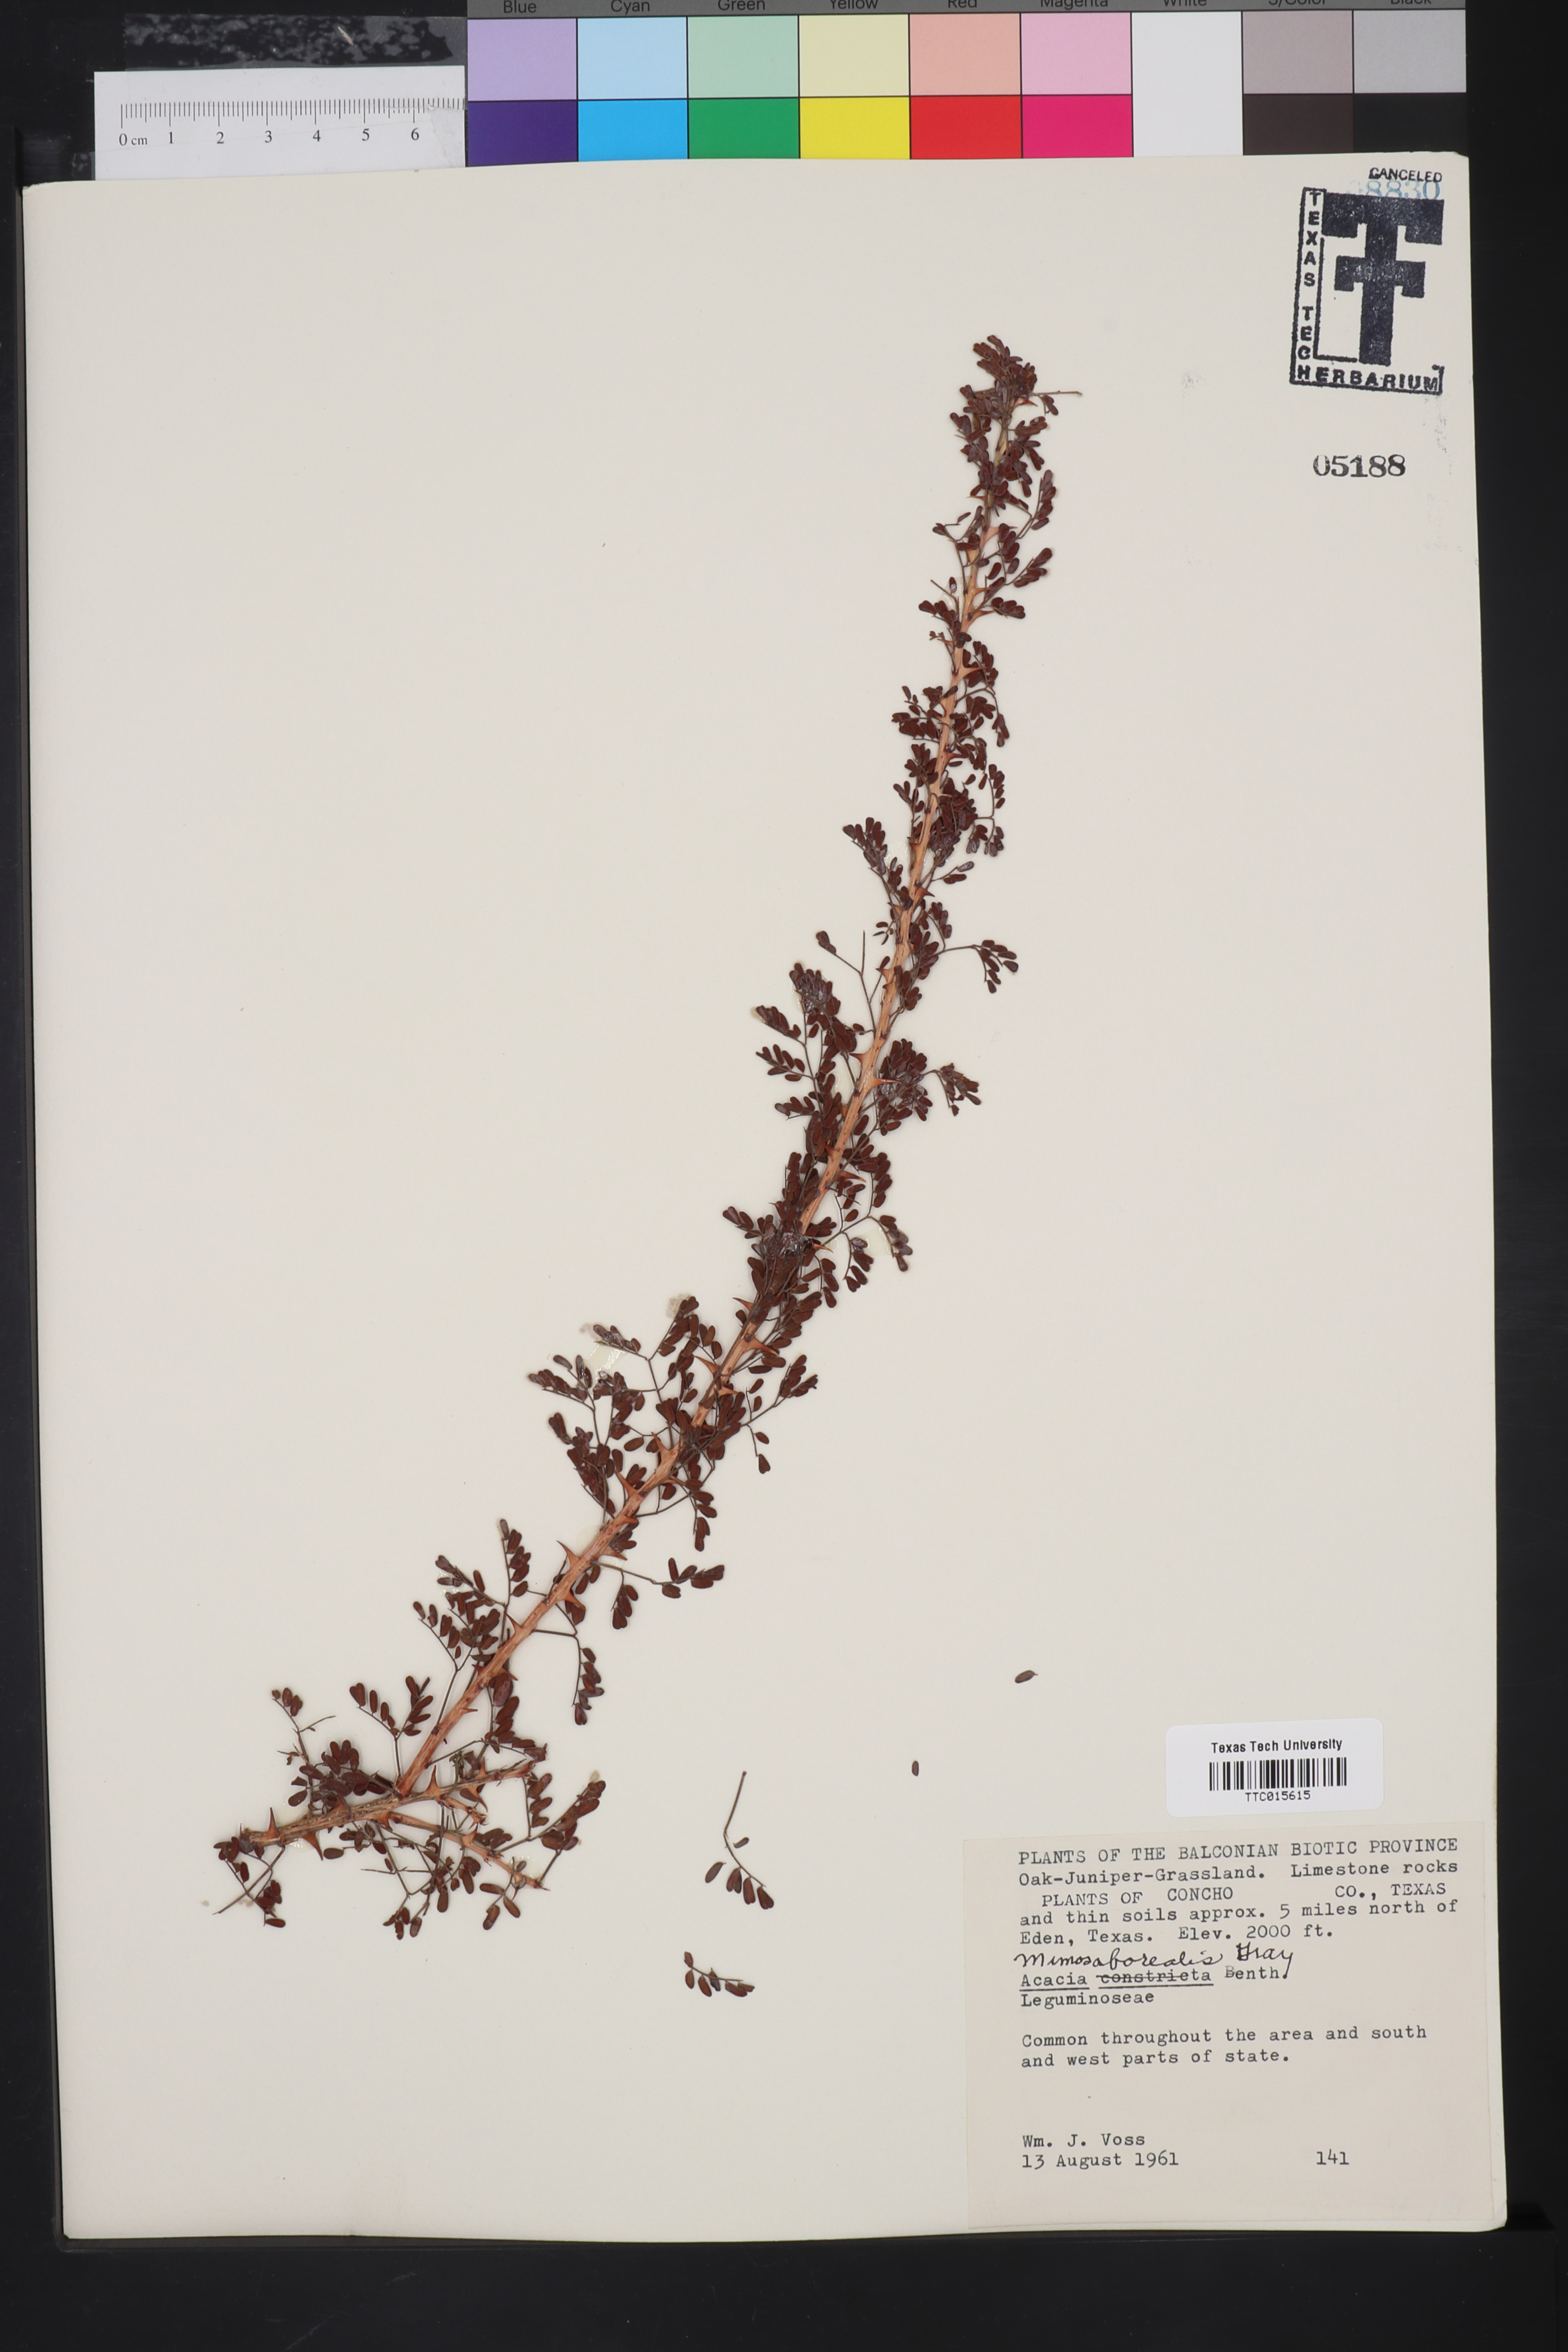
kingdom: Plantae
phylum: Tracheophyta
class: Magnoliopsida
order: Fabales
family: Fabaceae
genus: Mimosa
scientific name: Mimosa borealis
